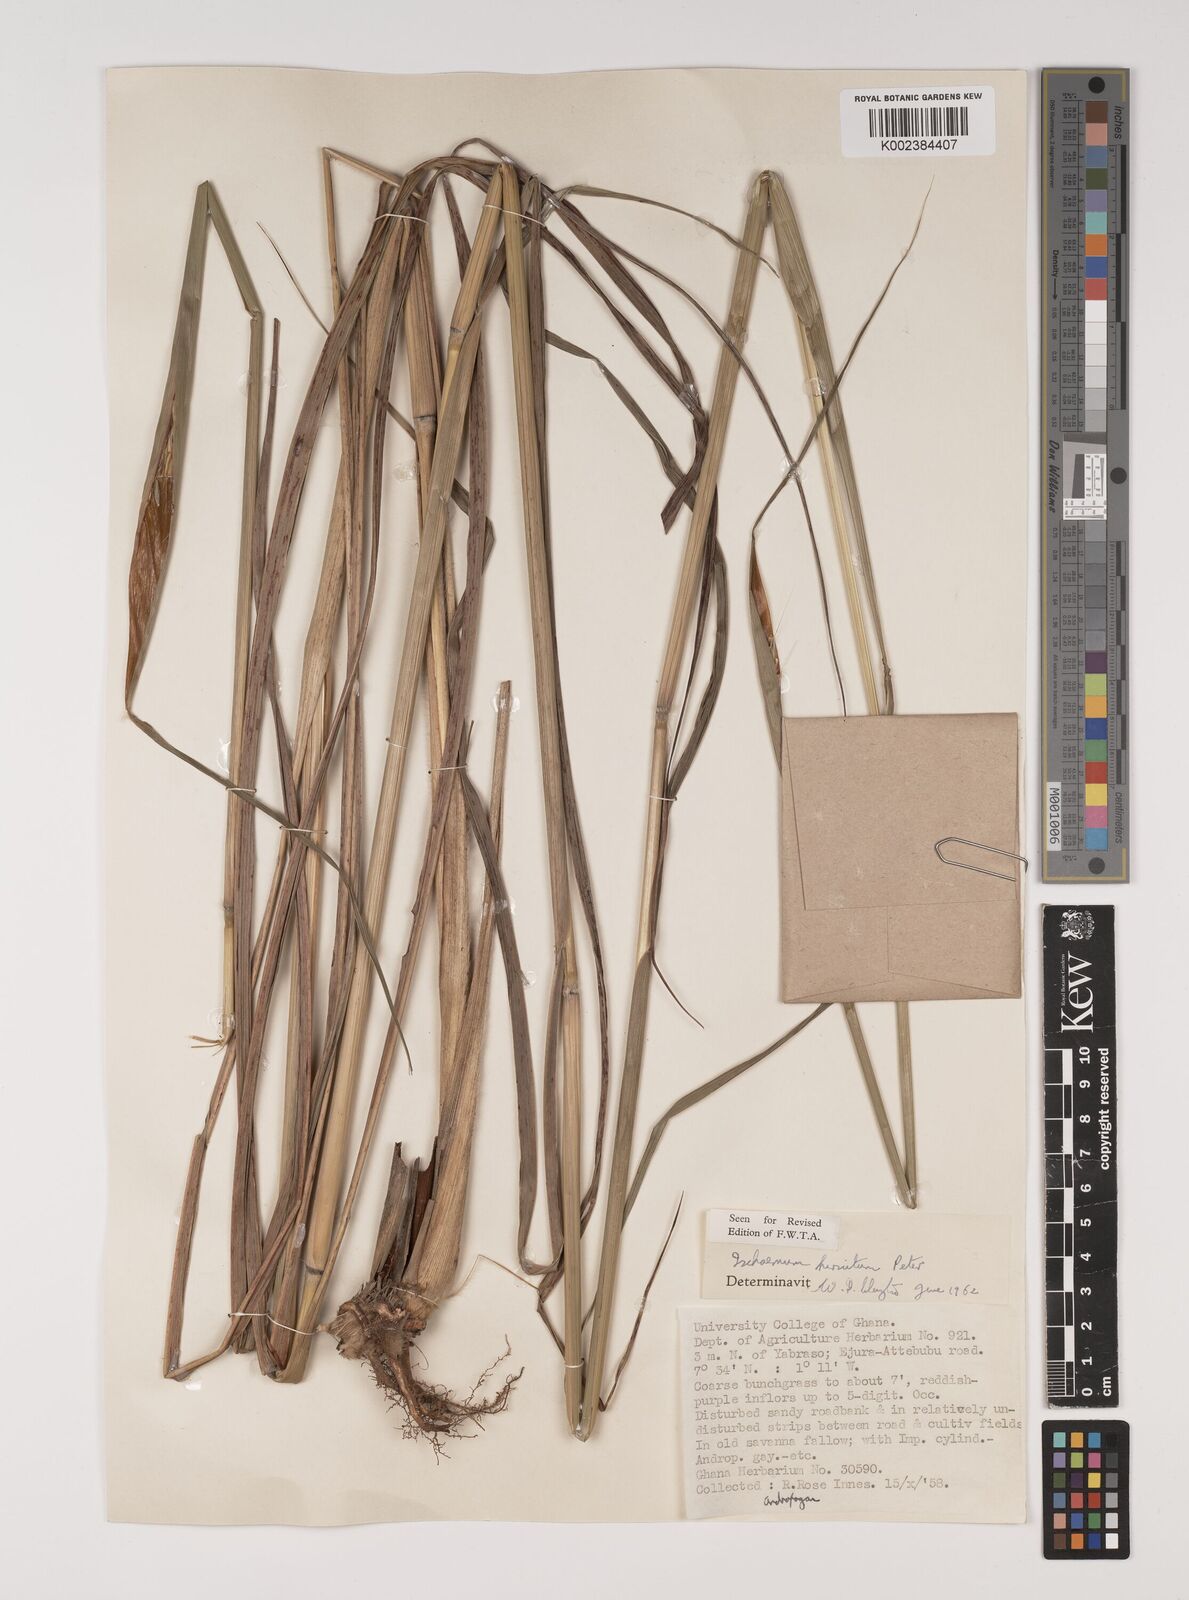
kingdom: Plantae
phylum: Tracheophyta
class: Liliopsida
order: Poales
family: Poaceae
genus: Rottboellia
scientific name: Rottboellia villosa
